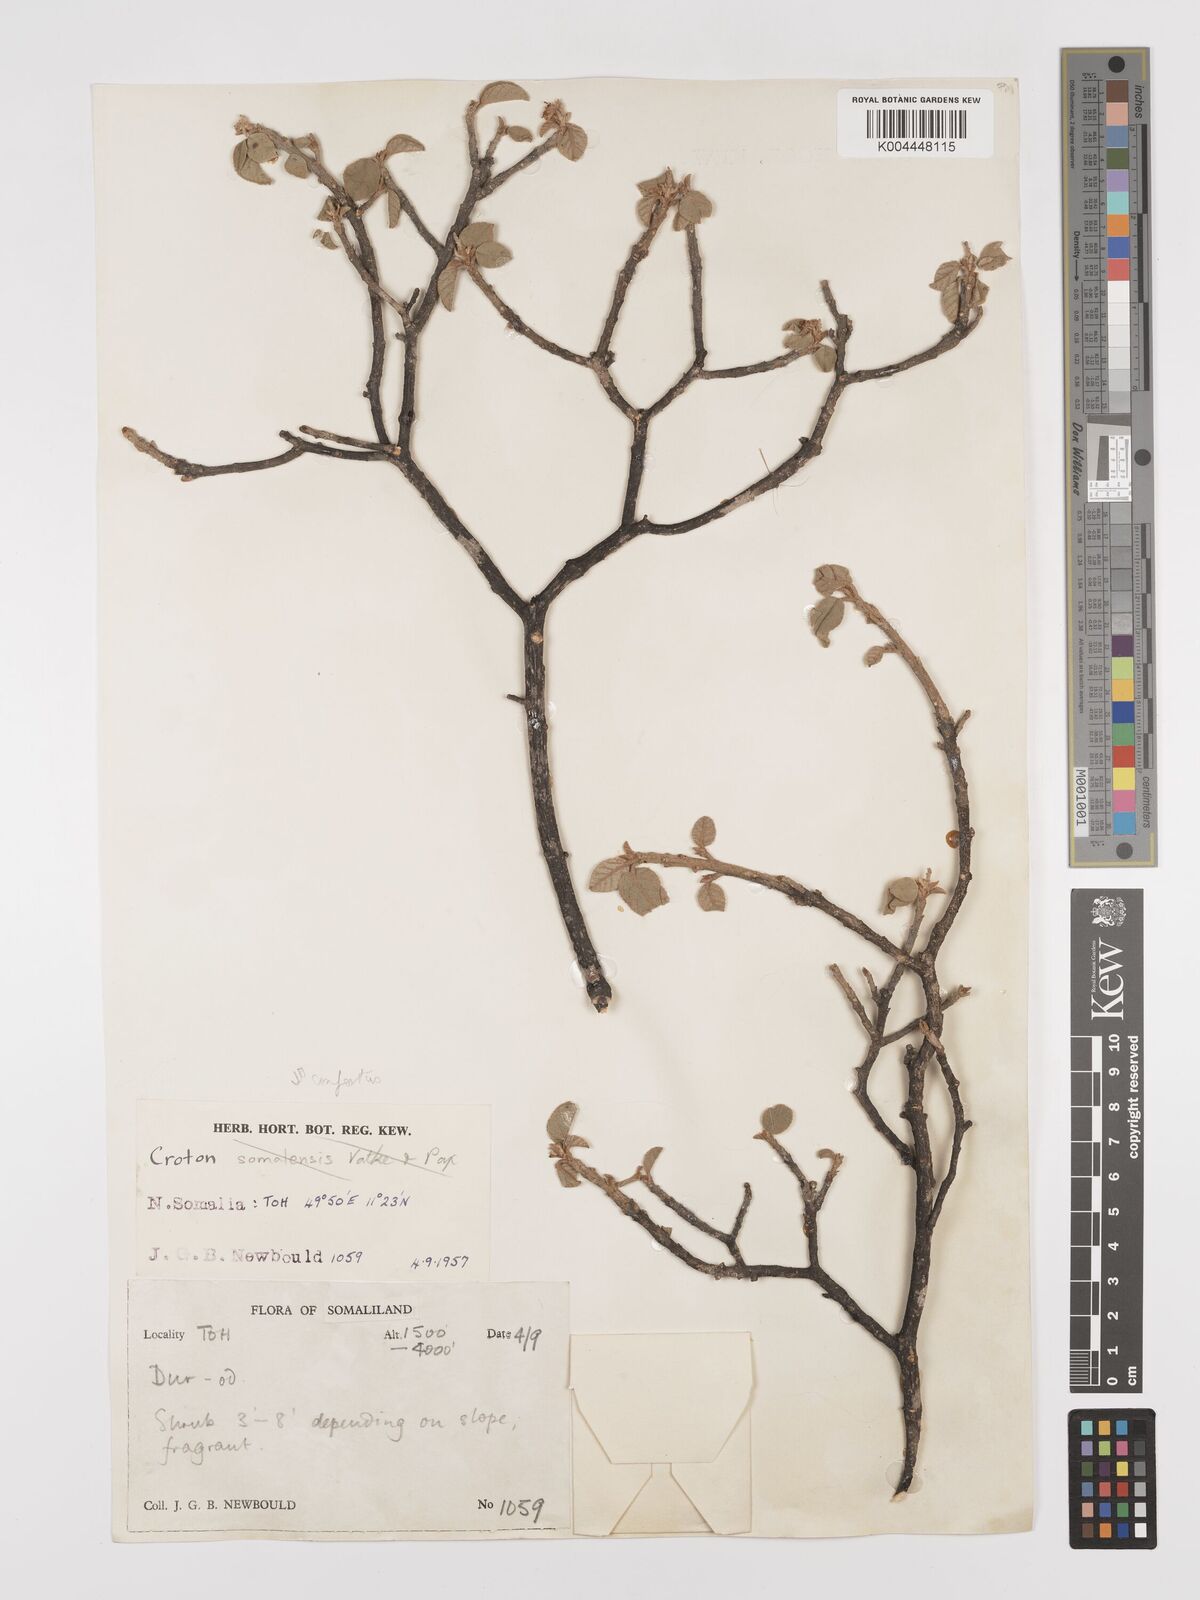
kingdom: Plantae
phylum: Tracheophyta
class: Magnoliopsida
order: Malpighiales
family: Euphorbiaceae
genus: Croton
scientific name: Croton confertus
